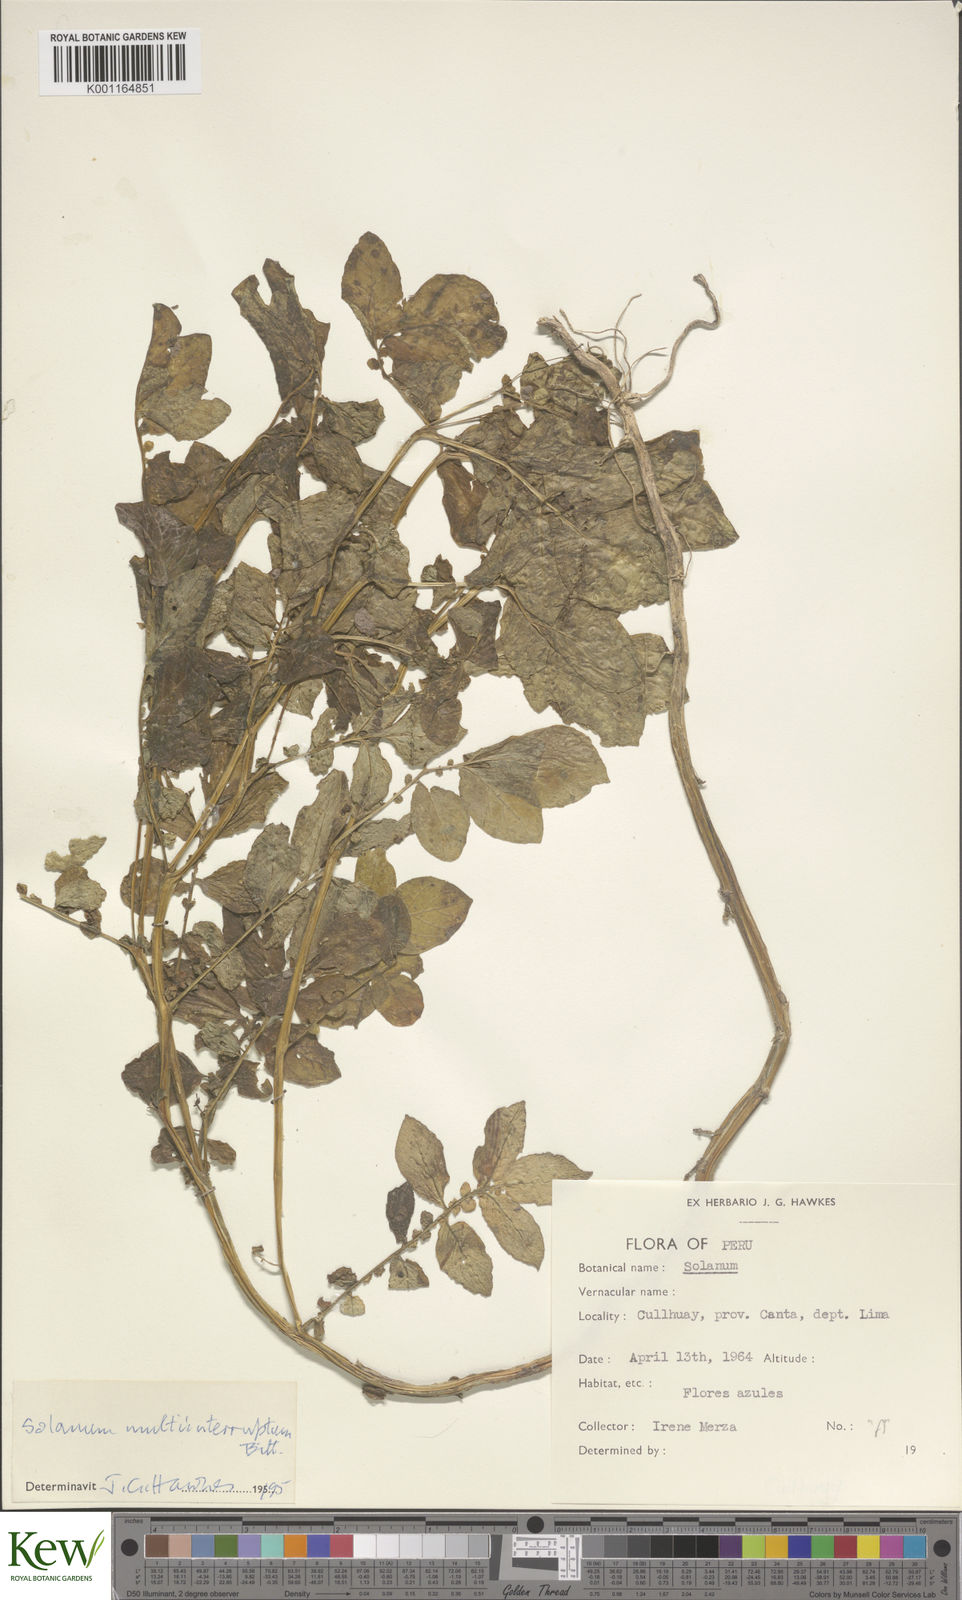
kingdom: Plantae
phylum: Tracheophyta
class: Magnoliopsida
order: Solanales
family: Solanaceae
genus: Solanum
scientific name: Solanum multiinterruptum
